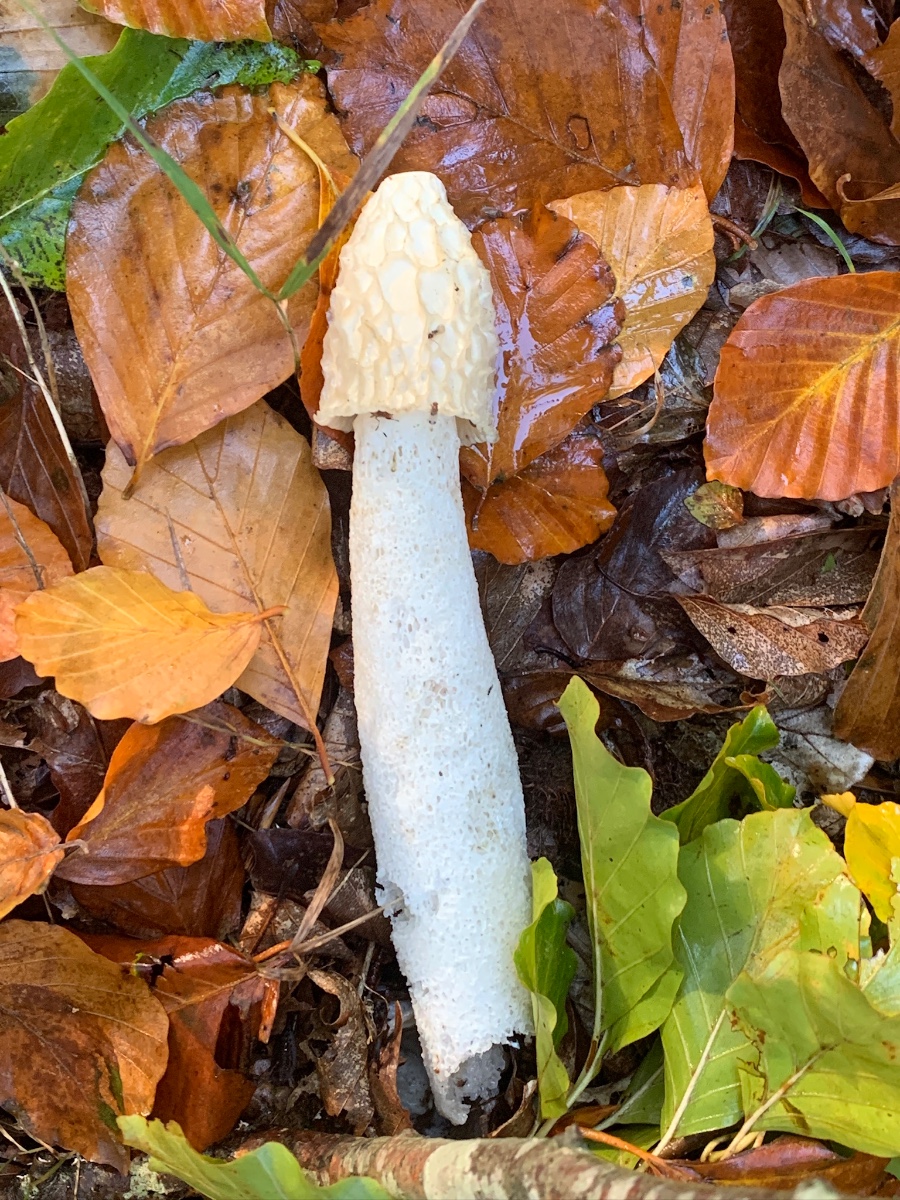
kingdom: Fungi
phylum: Basidiomycota
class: Agaricomycetes
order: Phallales
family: Phallaceae
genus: Phallus
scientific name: Phallus impudicus
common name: almindelig stinksvamp
